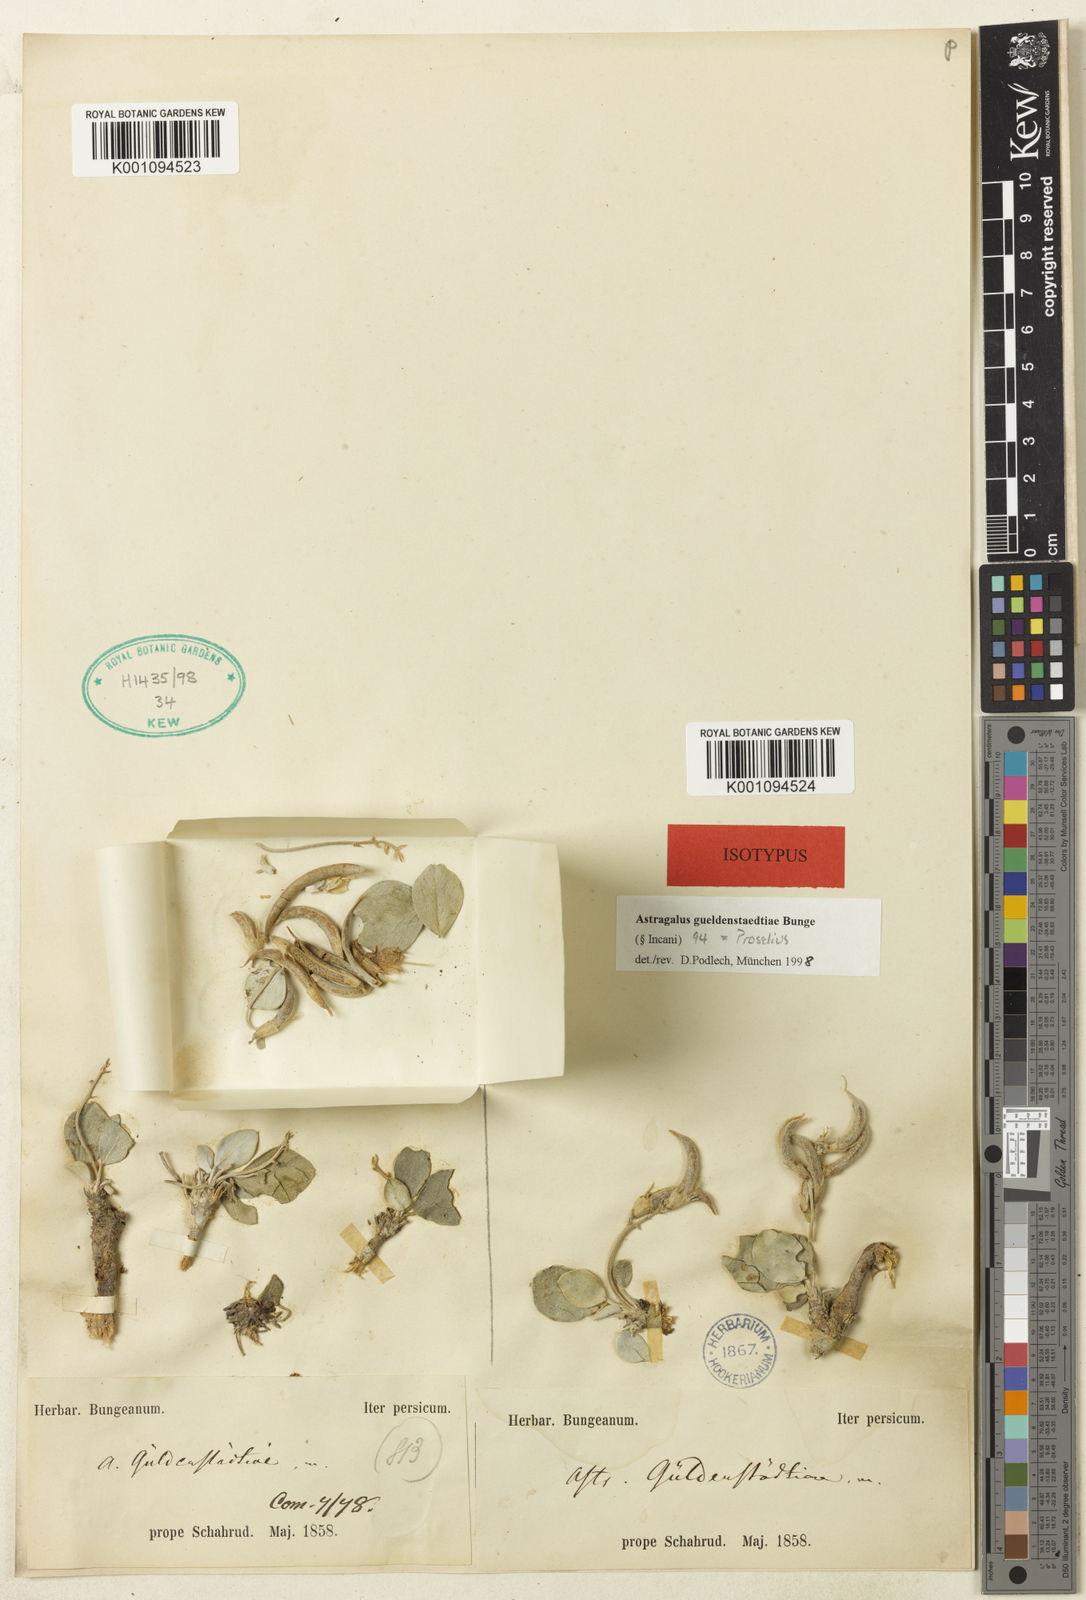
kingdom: Plantae
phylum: Tracheophyta
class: Magnoliopsida
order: Fabales
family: Fabaceae
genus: Astragalus
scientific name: Astragalus
